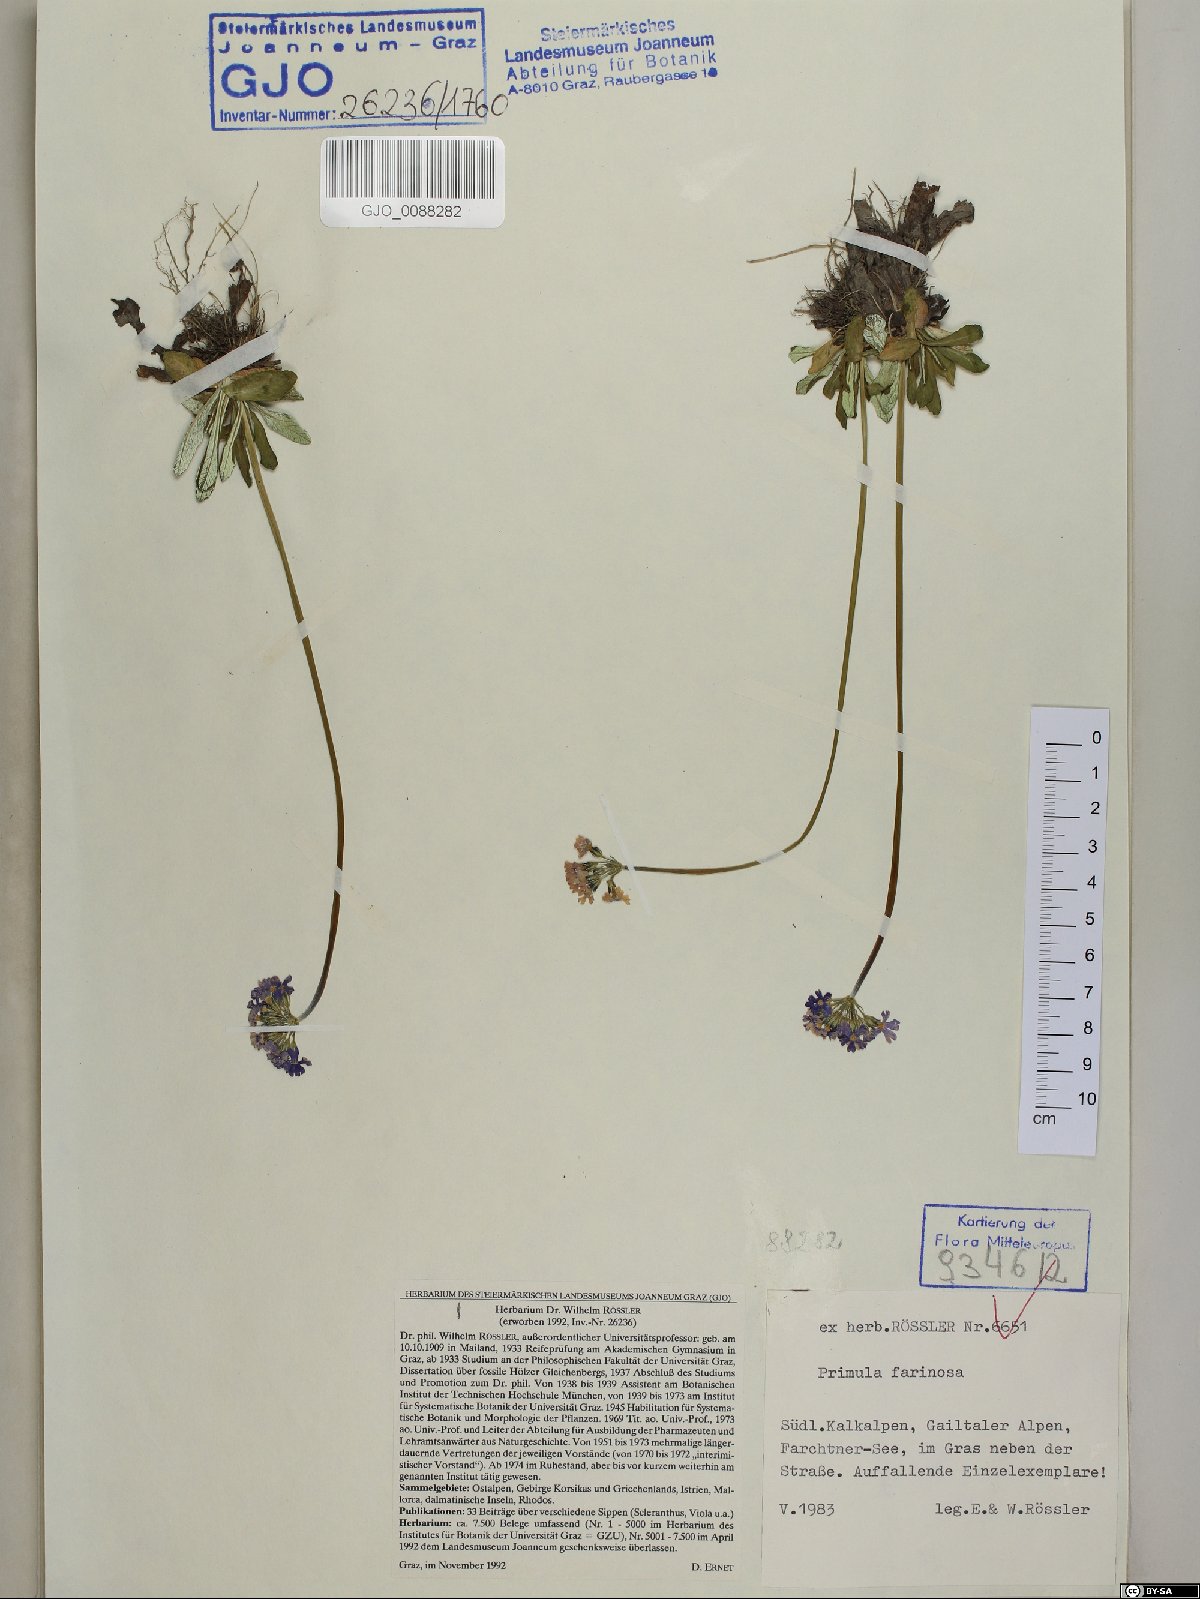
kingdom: Plantae
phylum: Tracheophyta
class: Magnoliopsida
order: Ericales
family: Primulaceae
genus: Primula
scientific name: Primula farinosa
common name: Bird's-eye primrose
